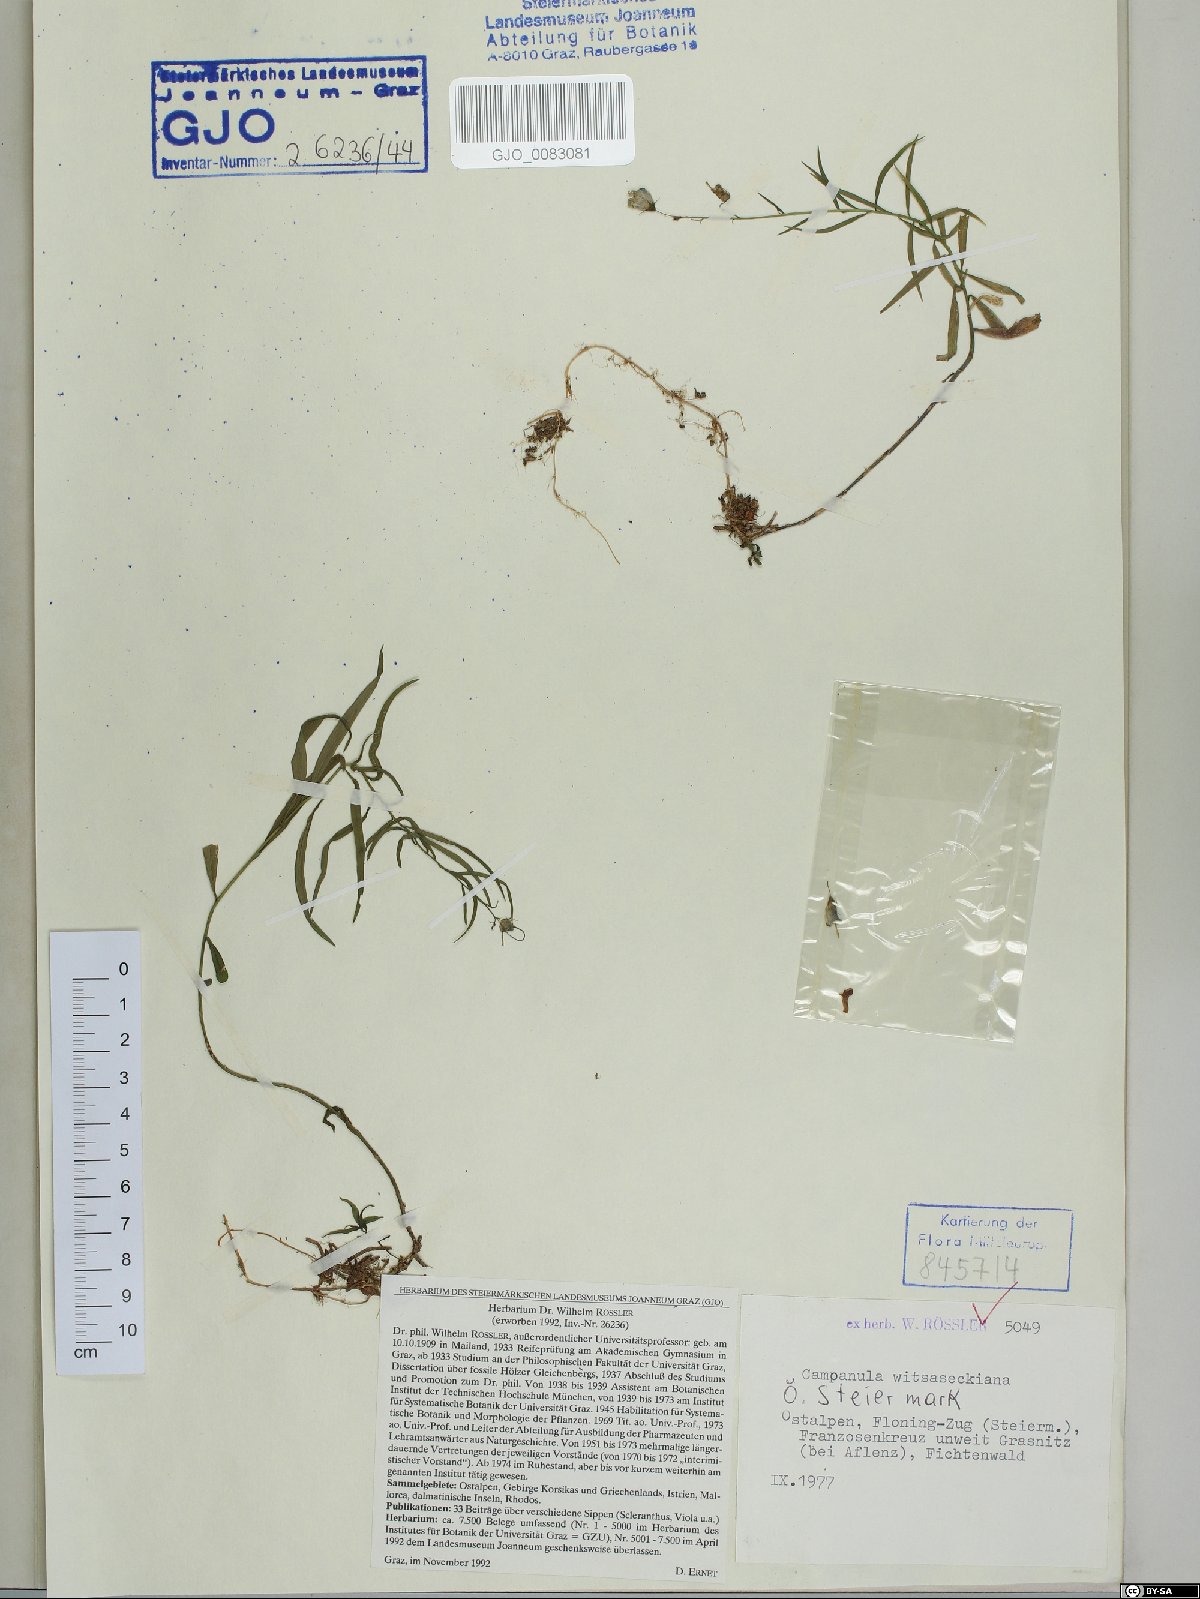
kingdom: Plantae
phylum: Tracheophyta
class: Magnoliopsida
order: Asterales
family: Campanulaceae
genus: Campanula
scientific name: Campanula witasekiana
